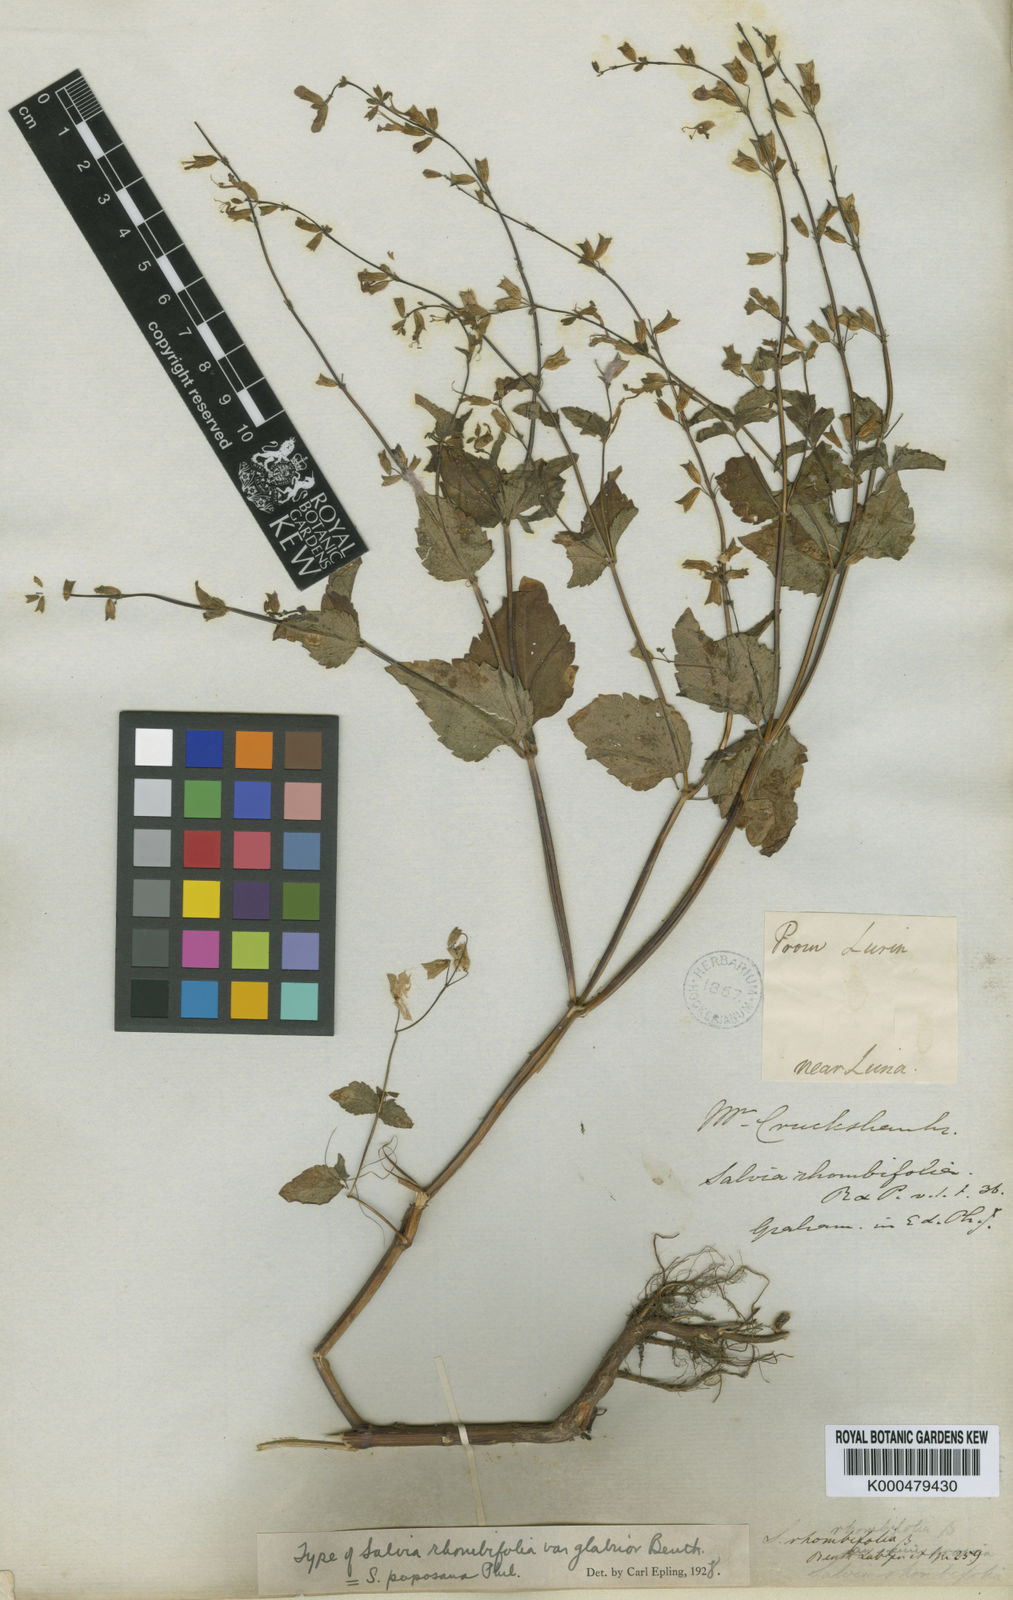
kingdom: Plantae
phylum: Tracheophyta
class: Magnoliopsida
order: Lamiales
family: Lamiaceae
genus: Salvia
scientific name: Salvia paposana
